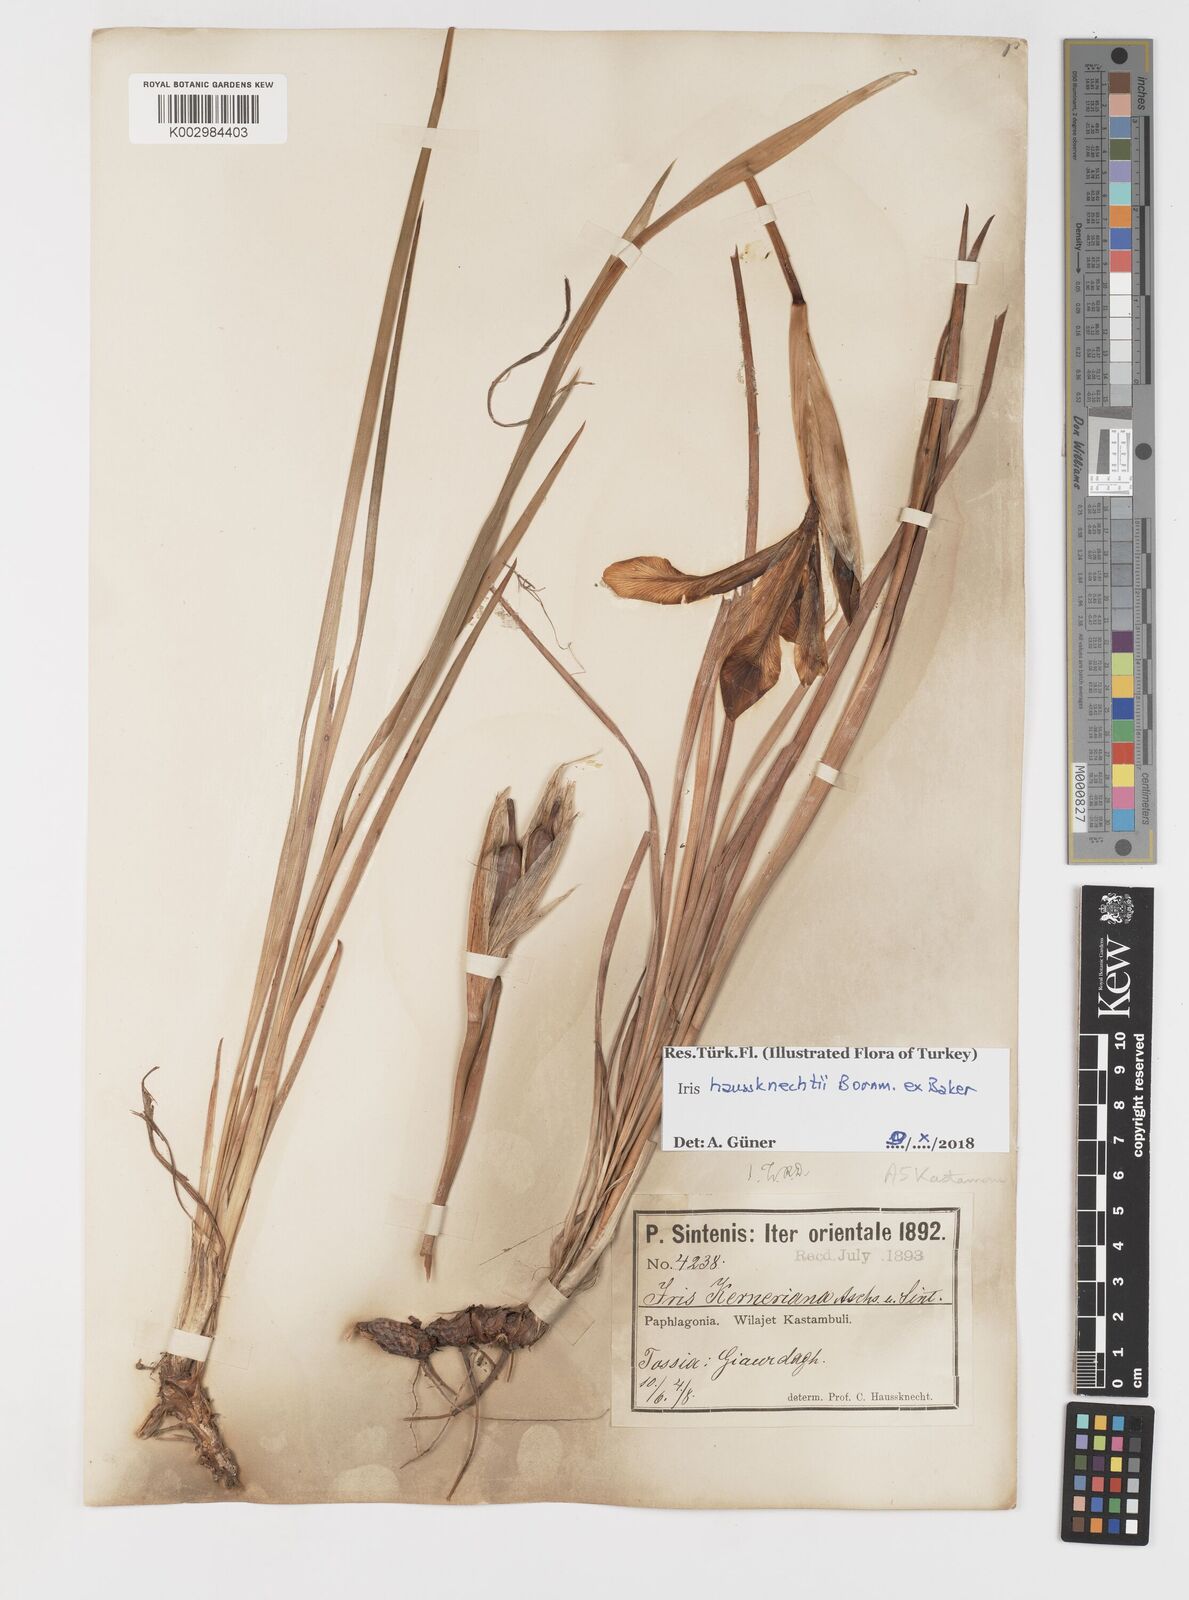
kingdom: Plantae
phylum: Tracheophyta
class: Liliopsida
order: Asparagales
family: Iridaceae
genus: Iris
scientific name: Iris haussknechtii
